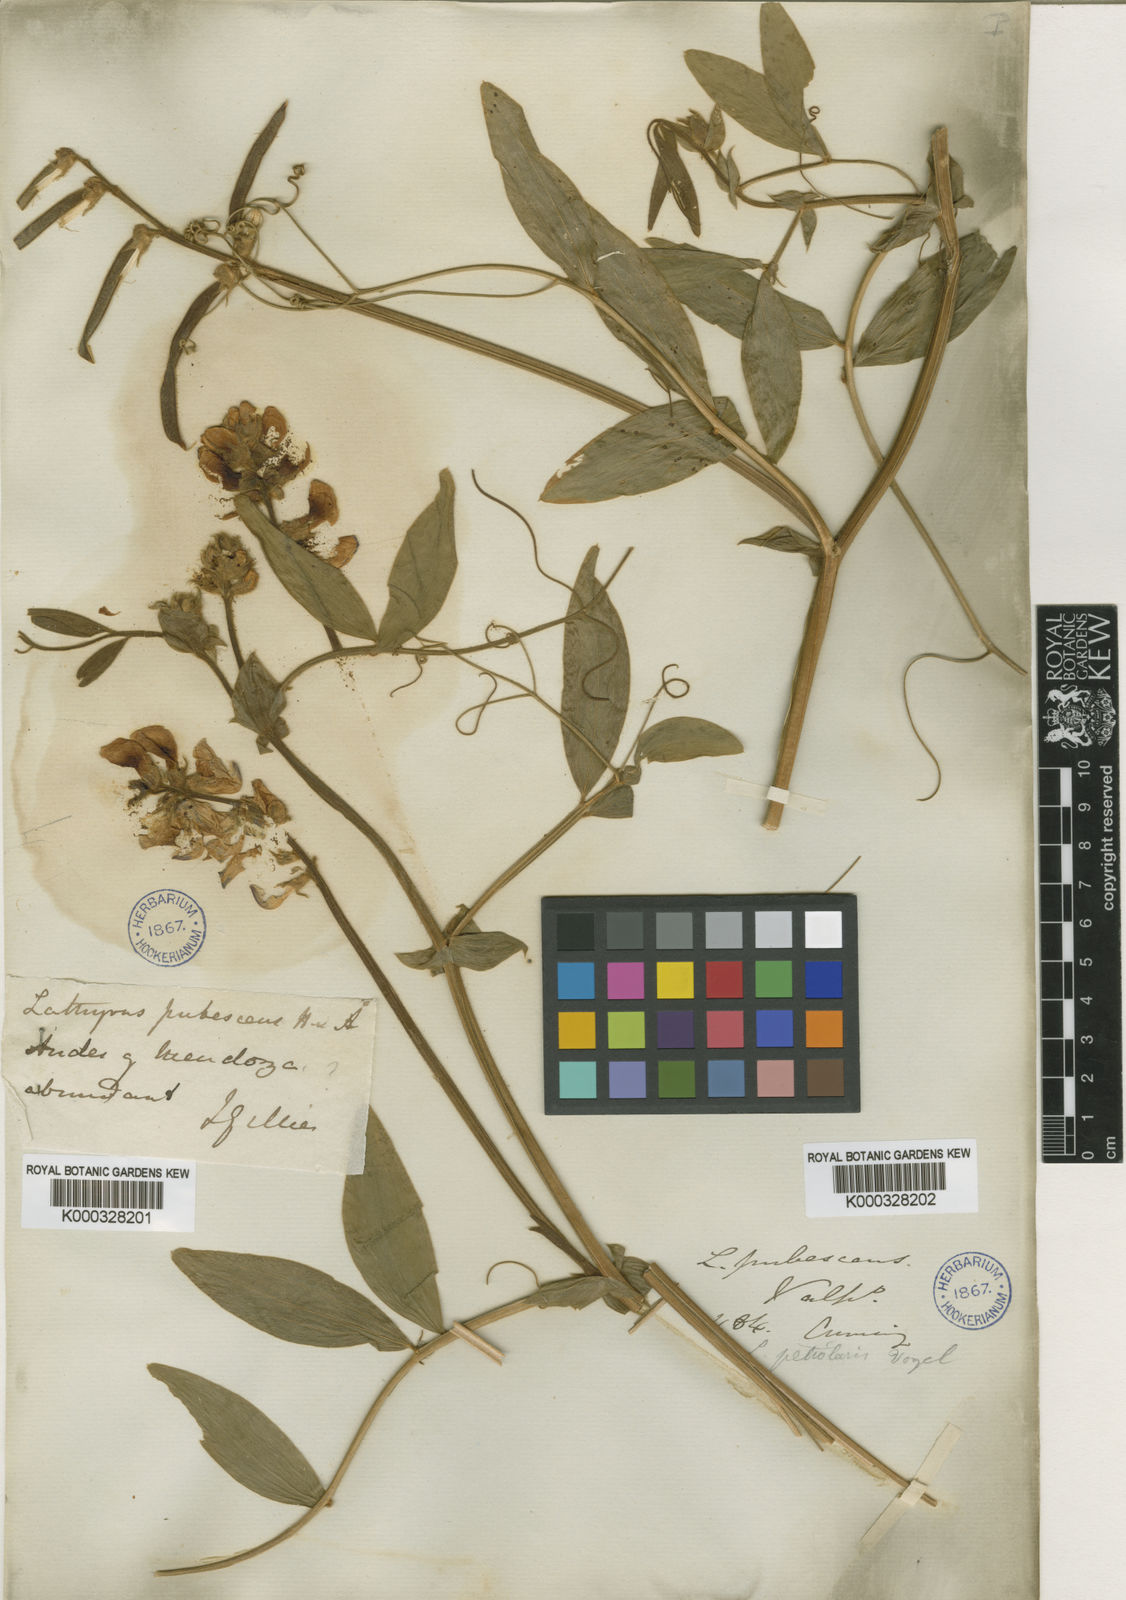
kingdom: Plantae
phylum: Tracheophyta
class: Magnoliopsida
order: Fabales
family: Fabaceae
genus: Lathyrus
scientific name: Lathyrus pubescens
